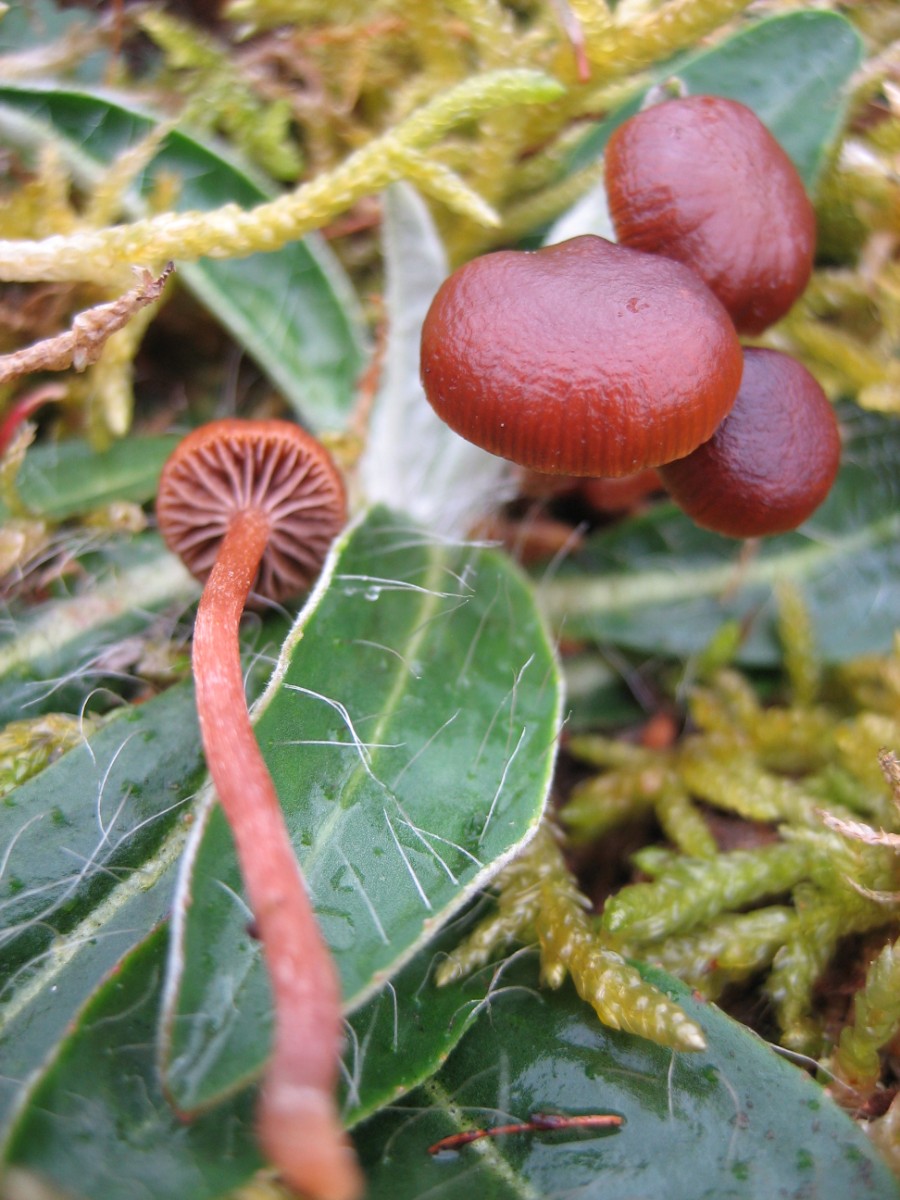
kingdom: Fungi
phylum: Basidiomycota
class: Agaricomycetes
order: Agaricales
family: Strophariaceae
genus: Deconica
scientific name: Deconica montana
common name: rødbrun stråhat
